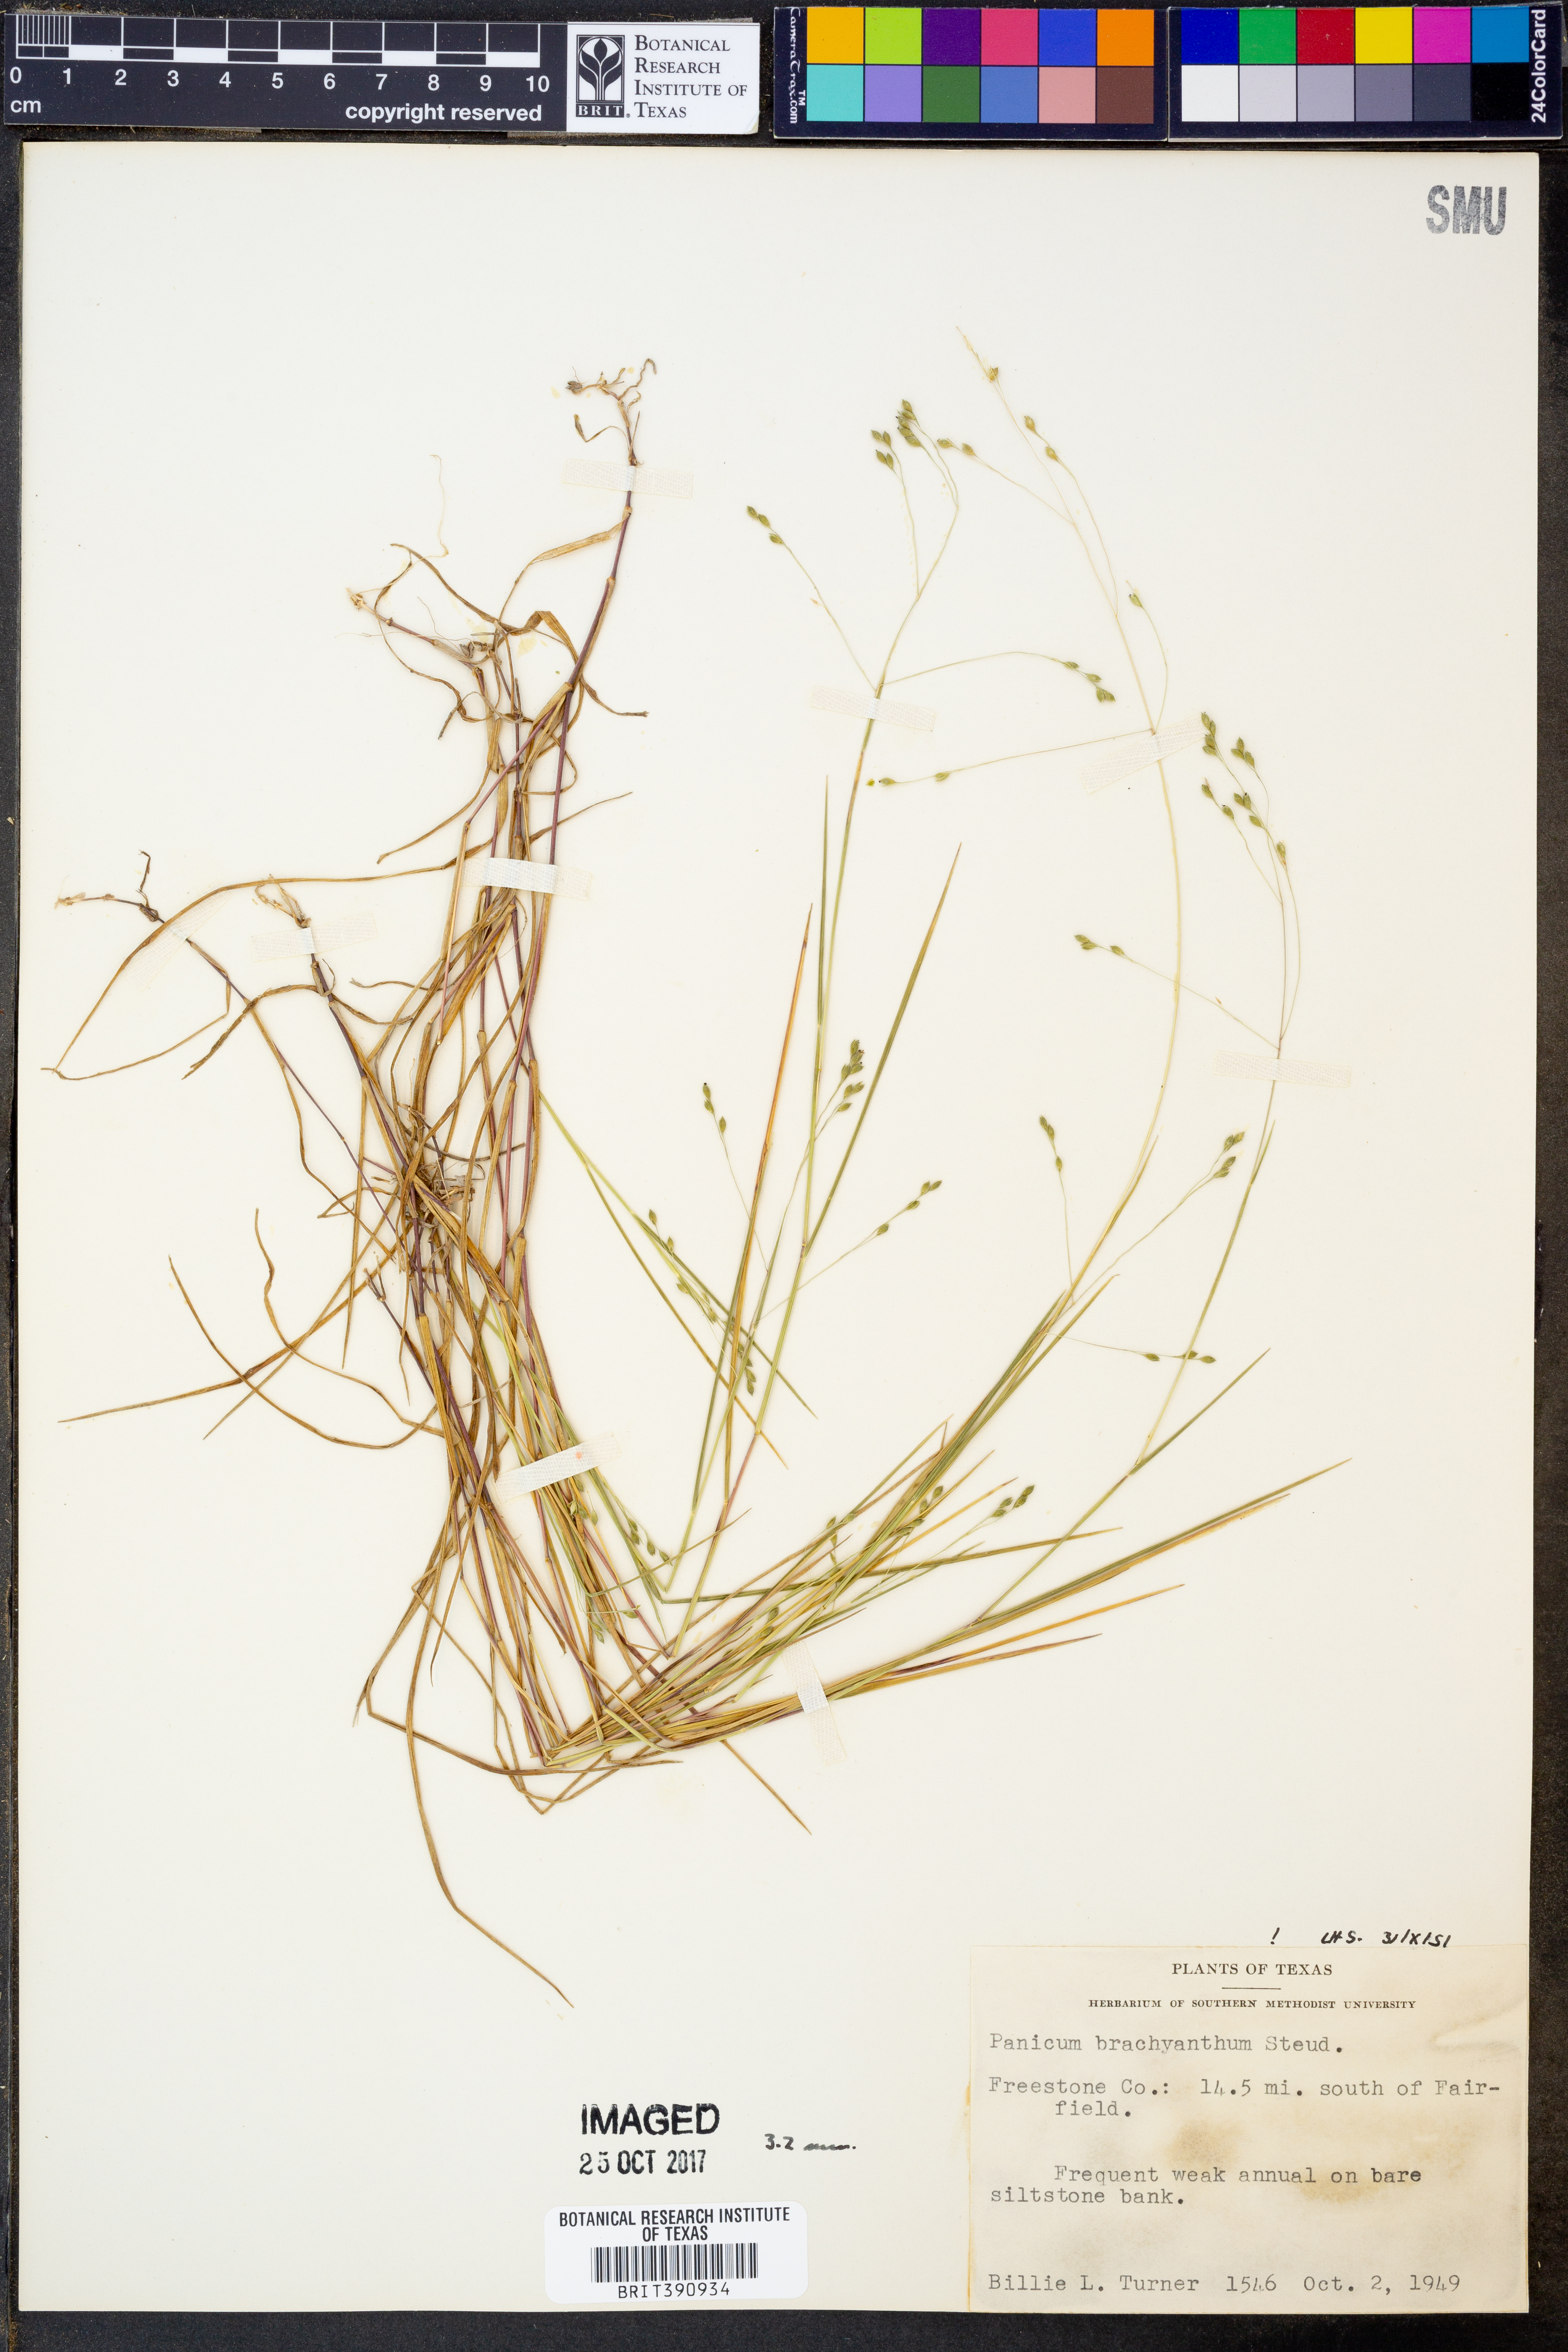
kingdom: Plantae
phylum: Tracheophyta
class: Liliopsida
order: Poales
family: Poaceae
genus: Kellochloa
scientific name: Kellochloa brachyantha
